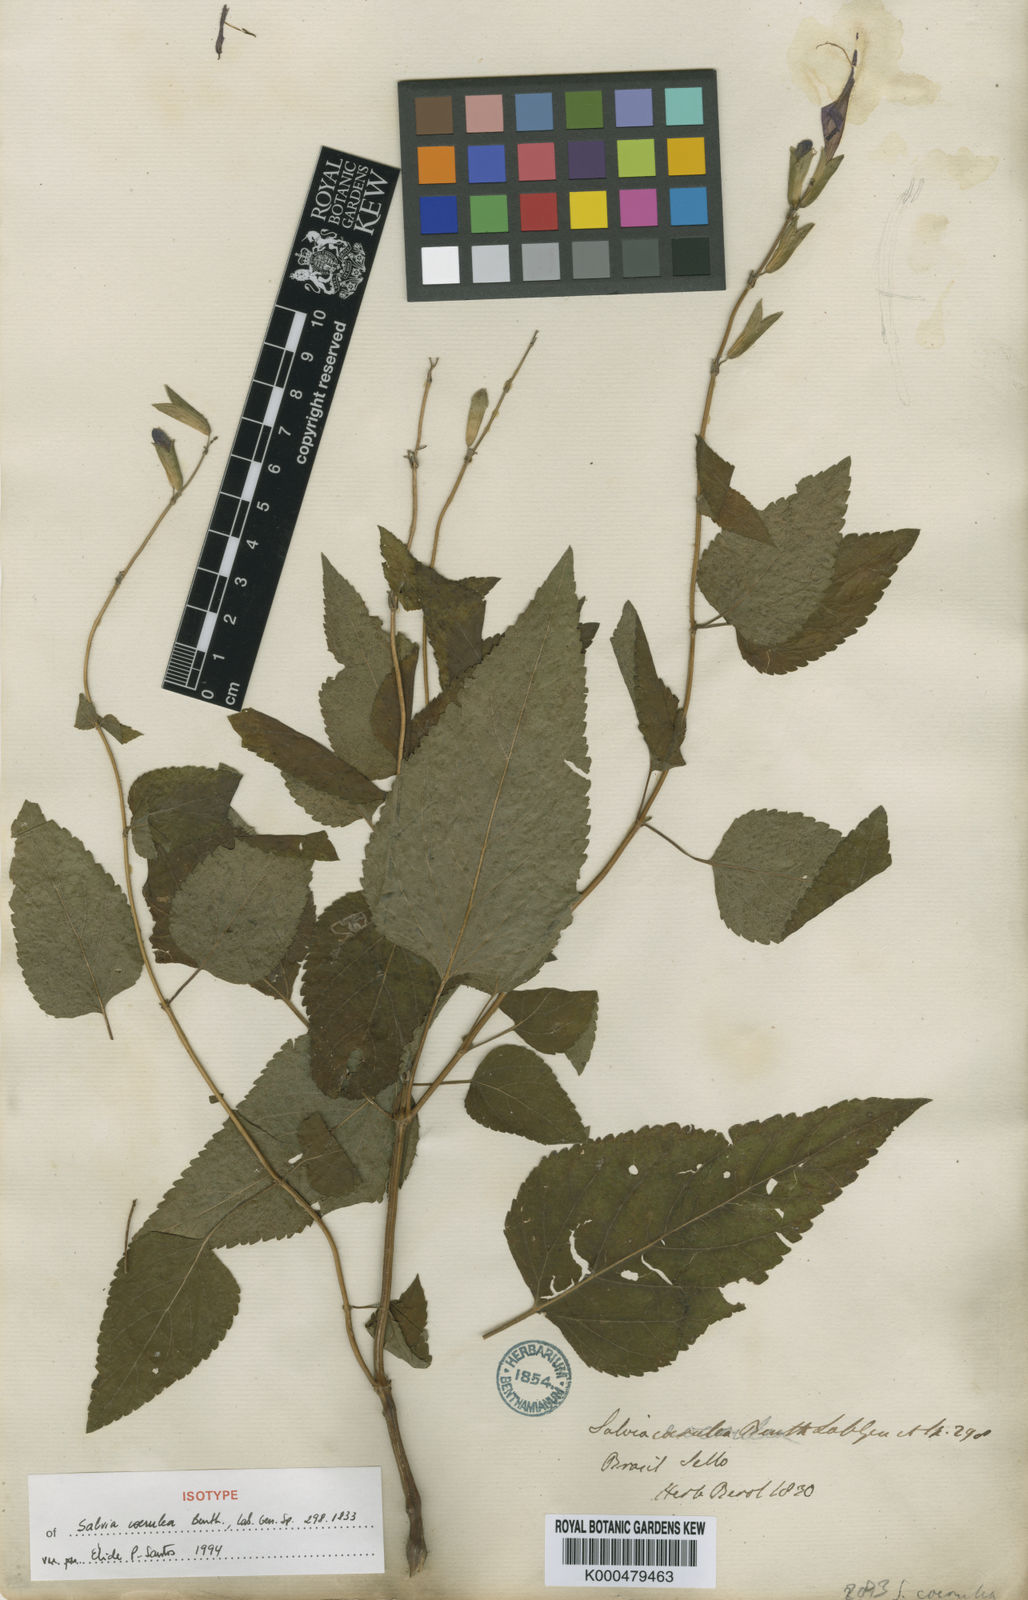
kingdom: Plantae
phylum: Tracheophyta
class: Magnoliopsida
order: Lamiales
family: Lamiaceae
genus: Salvia
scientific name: Salvia lamiifolia
